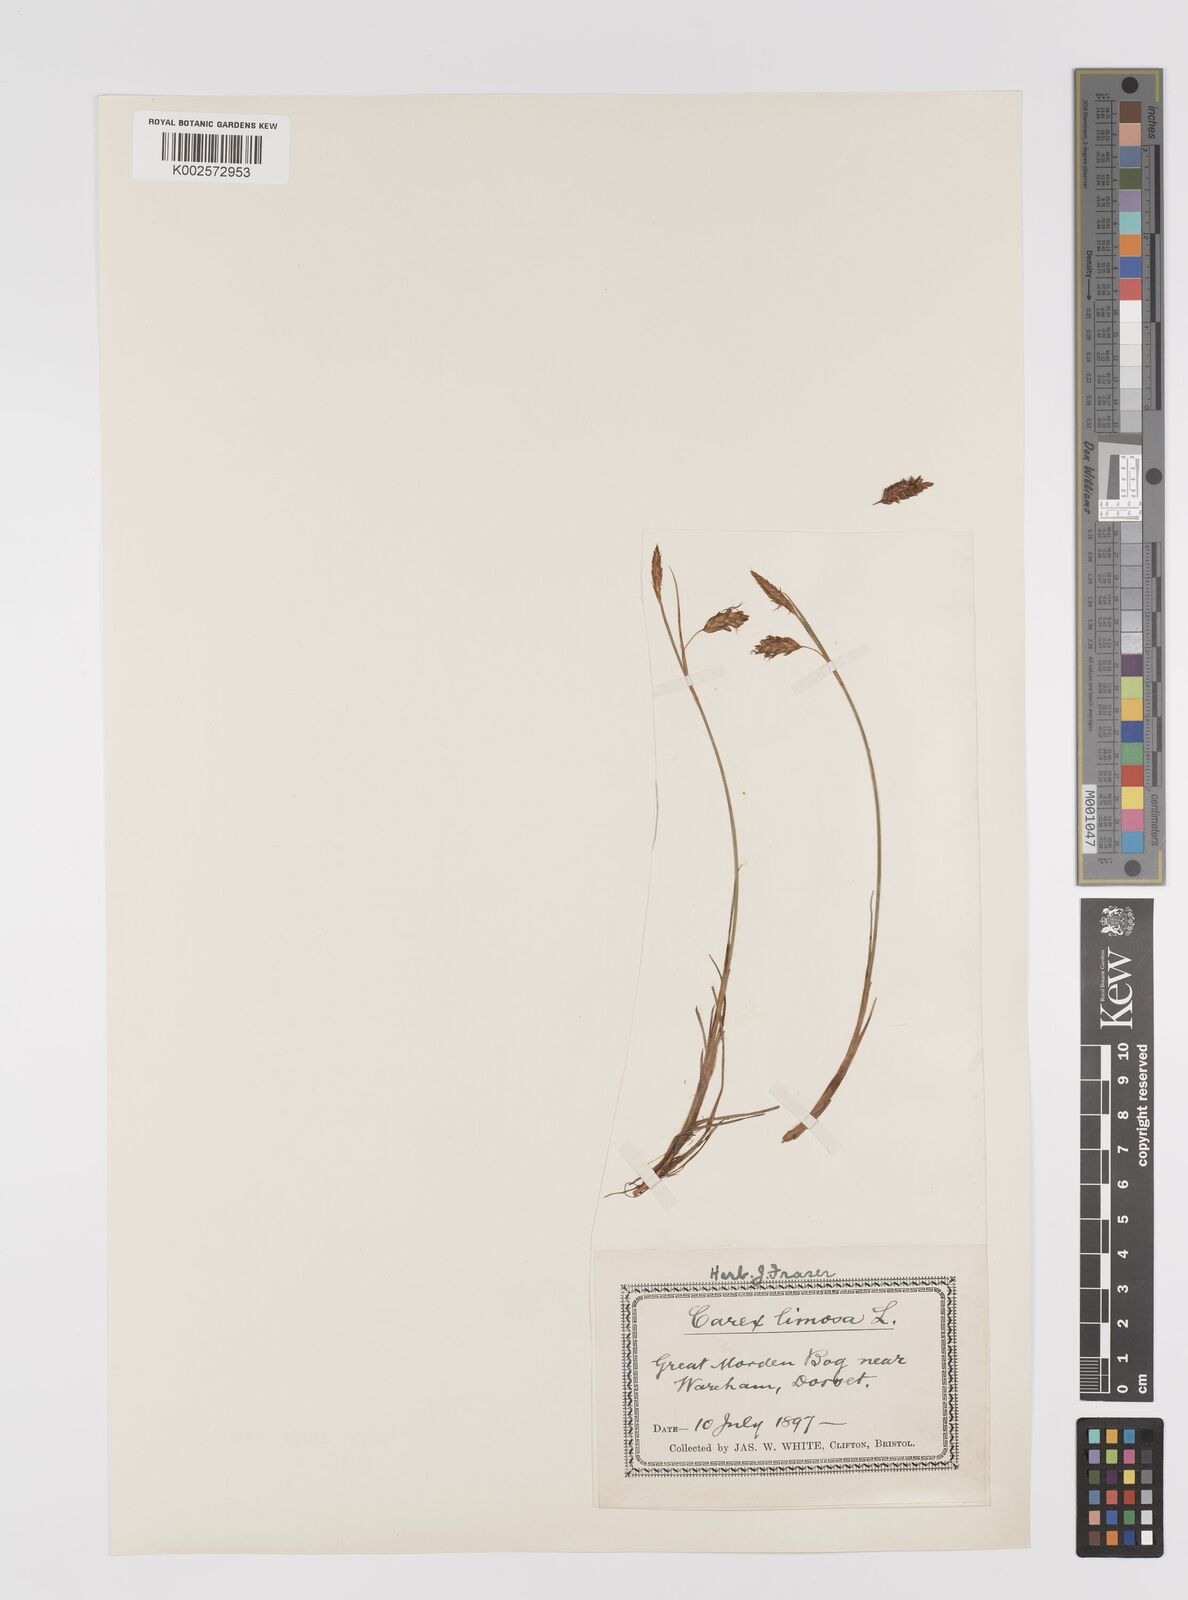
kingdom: Plantae
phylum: Tracheophyta
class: Liliopsida
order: Poales
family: Cyperaceae
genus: Carex
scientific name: Carex limosa
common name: Bog sedge
